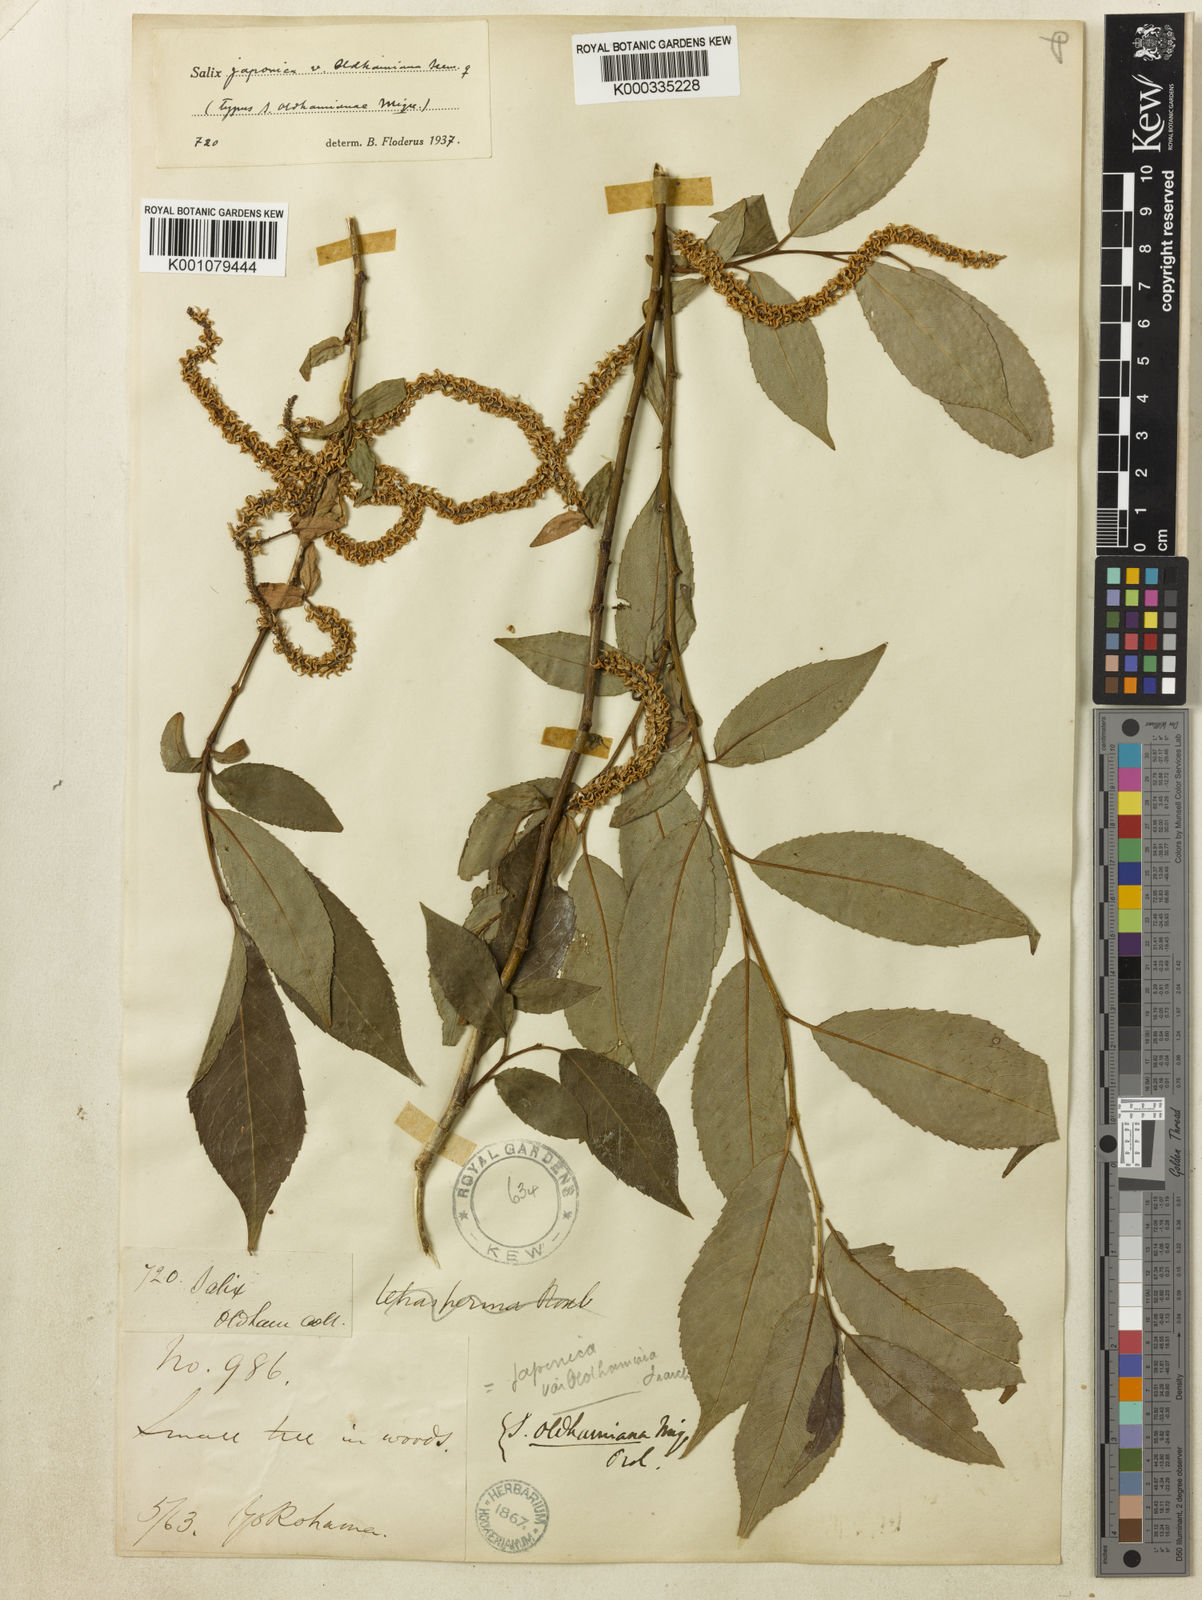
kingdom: Plantae
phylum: Tracheophyta
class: Magnoliopsida
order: Malpighiales
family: Salicaceae
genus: Salix
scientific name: Salix japonica
